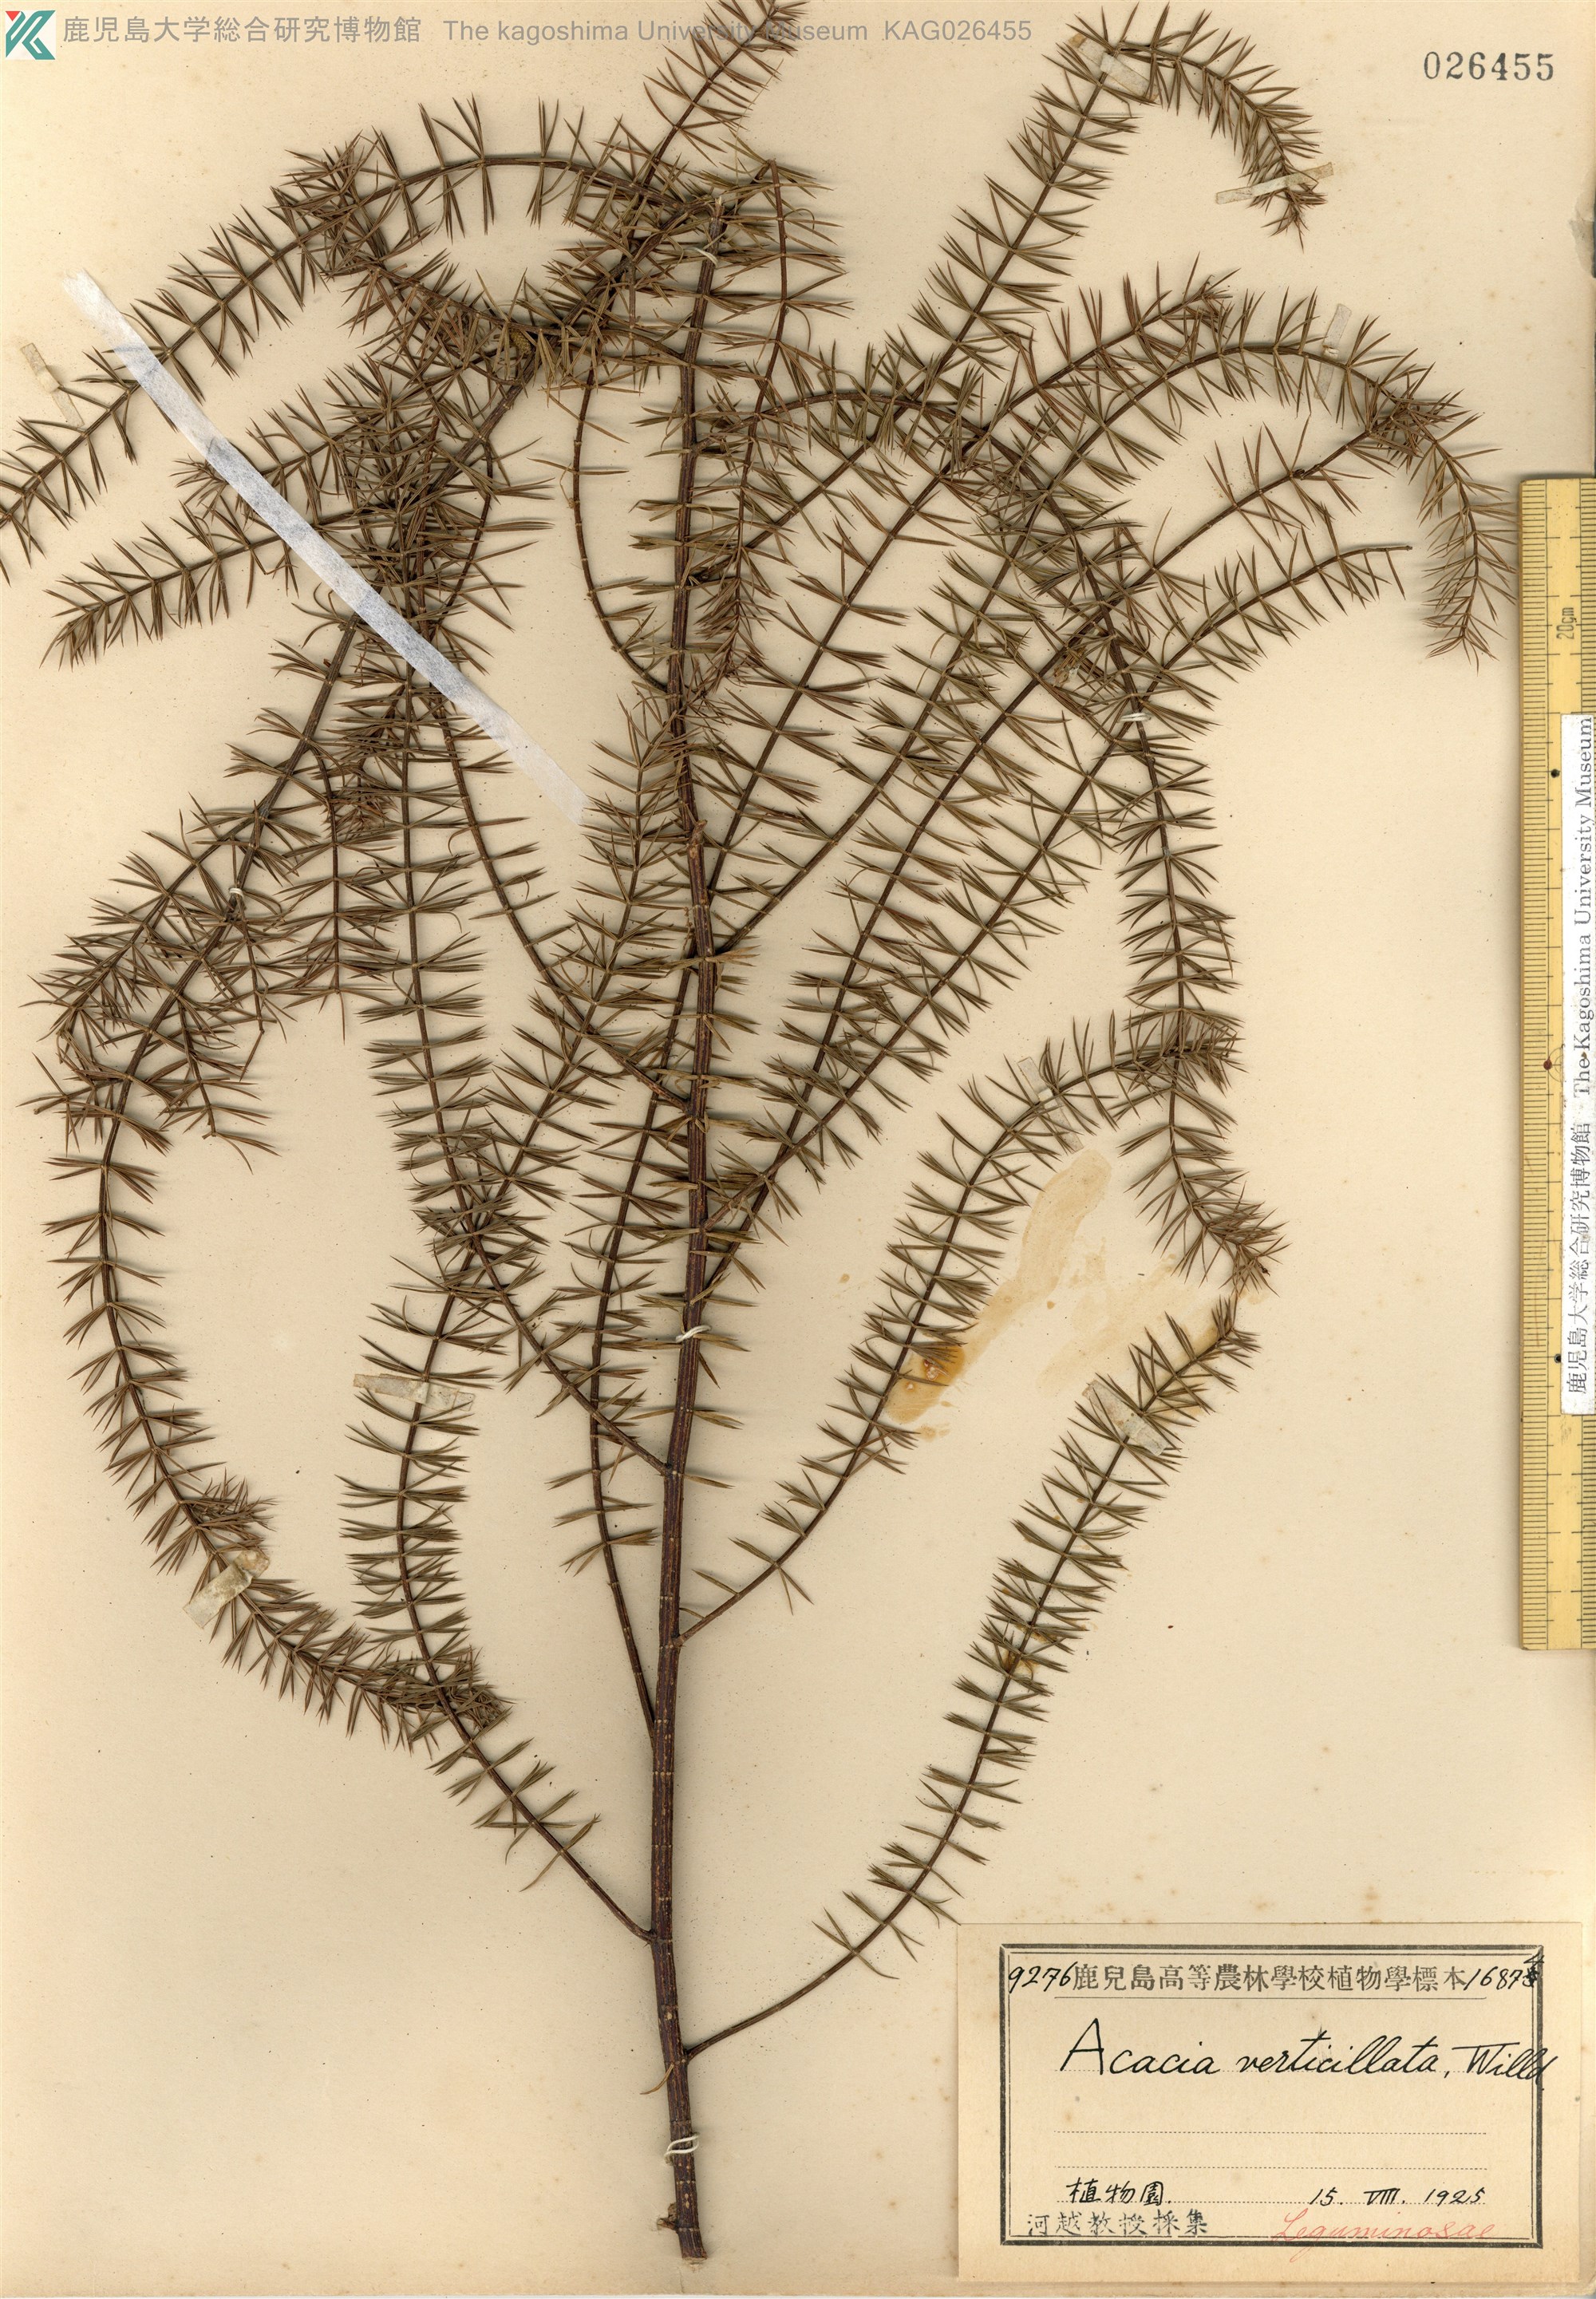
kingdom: Plantae
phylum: Tracheophyta
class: Magnoliopsida
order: Fabales
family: Fabaceae
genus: Acacia
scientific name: Acacia verticillata
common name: Prickly moses
